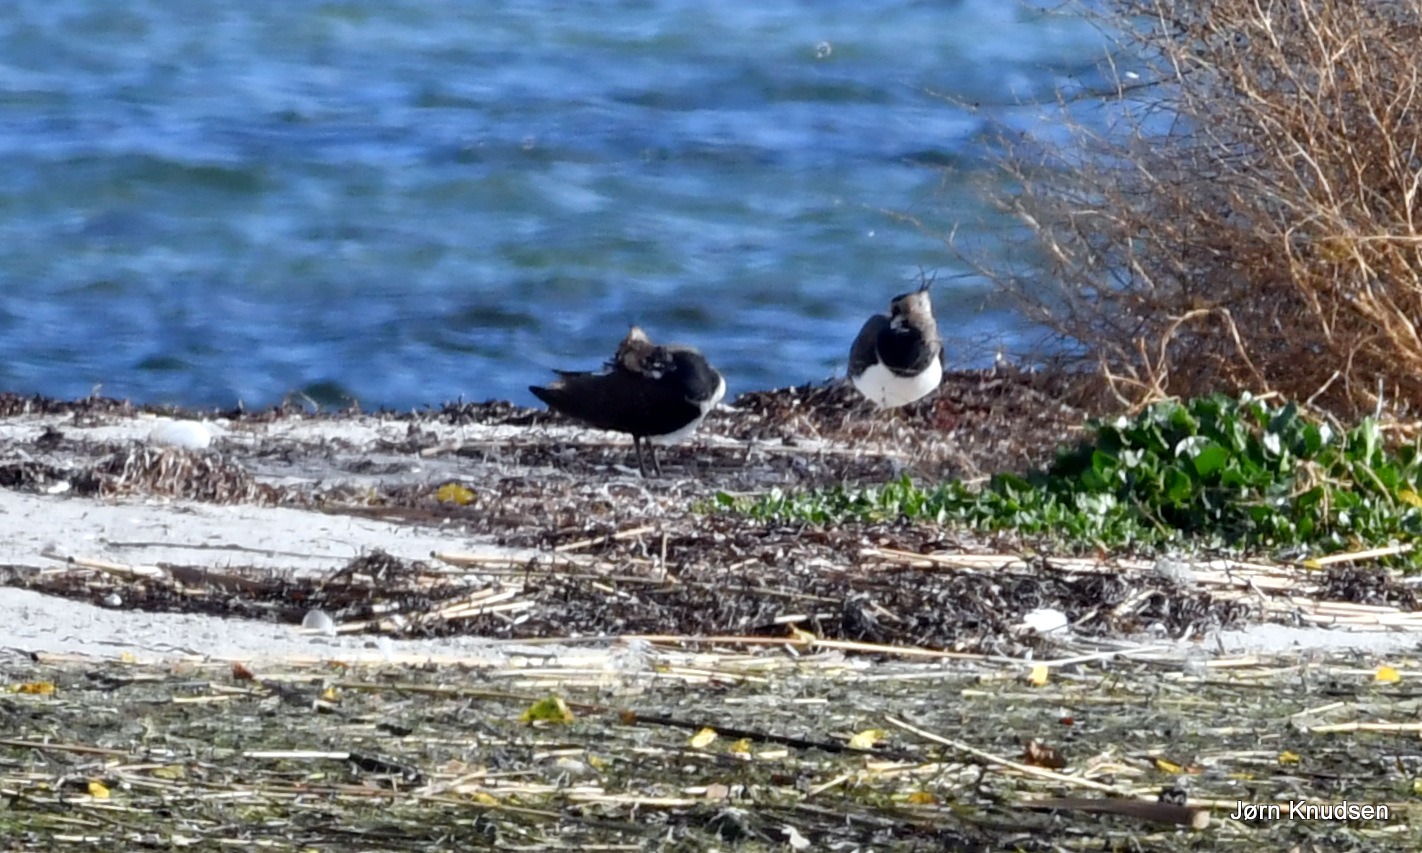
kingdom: Animalia
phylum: Chordata
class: Aves
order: Charadriiformes
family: Charadriidae
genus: Vanellus
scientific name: Vanellus vanellus
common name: Vibe
